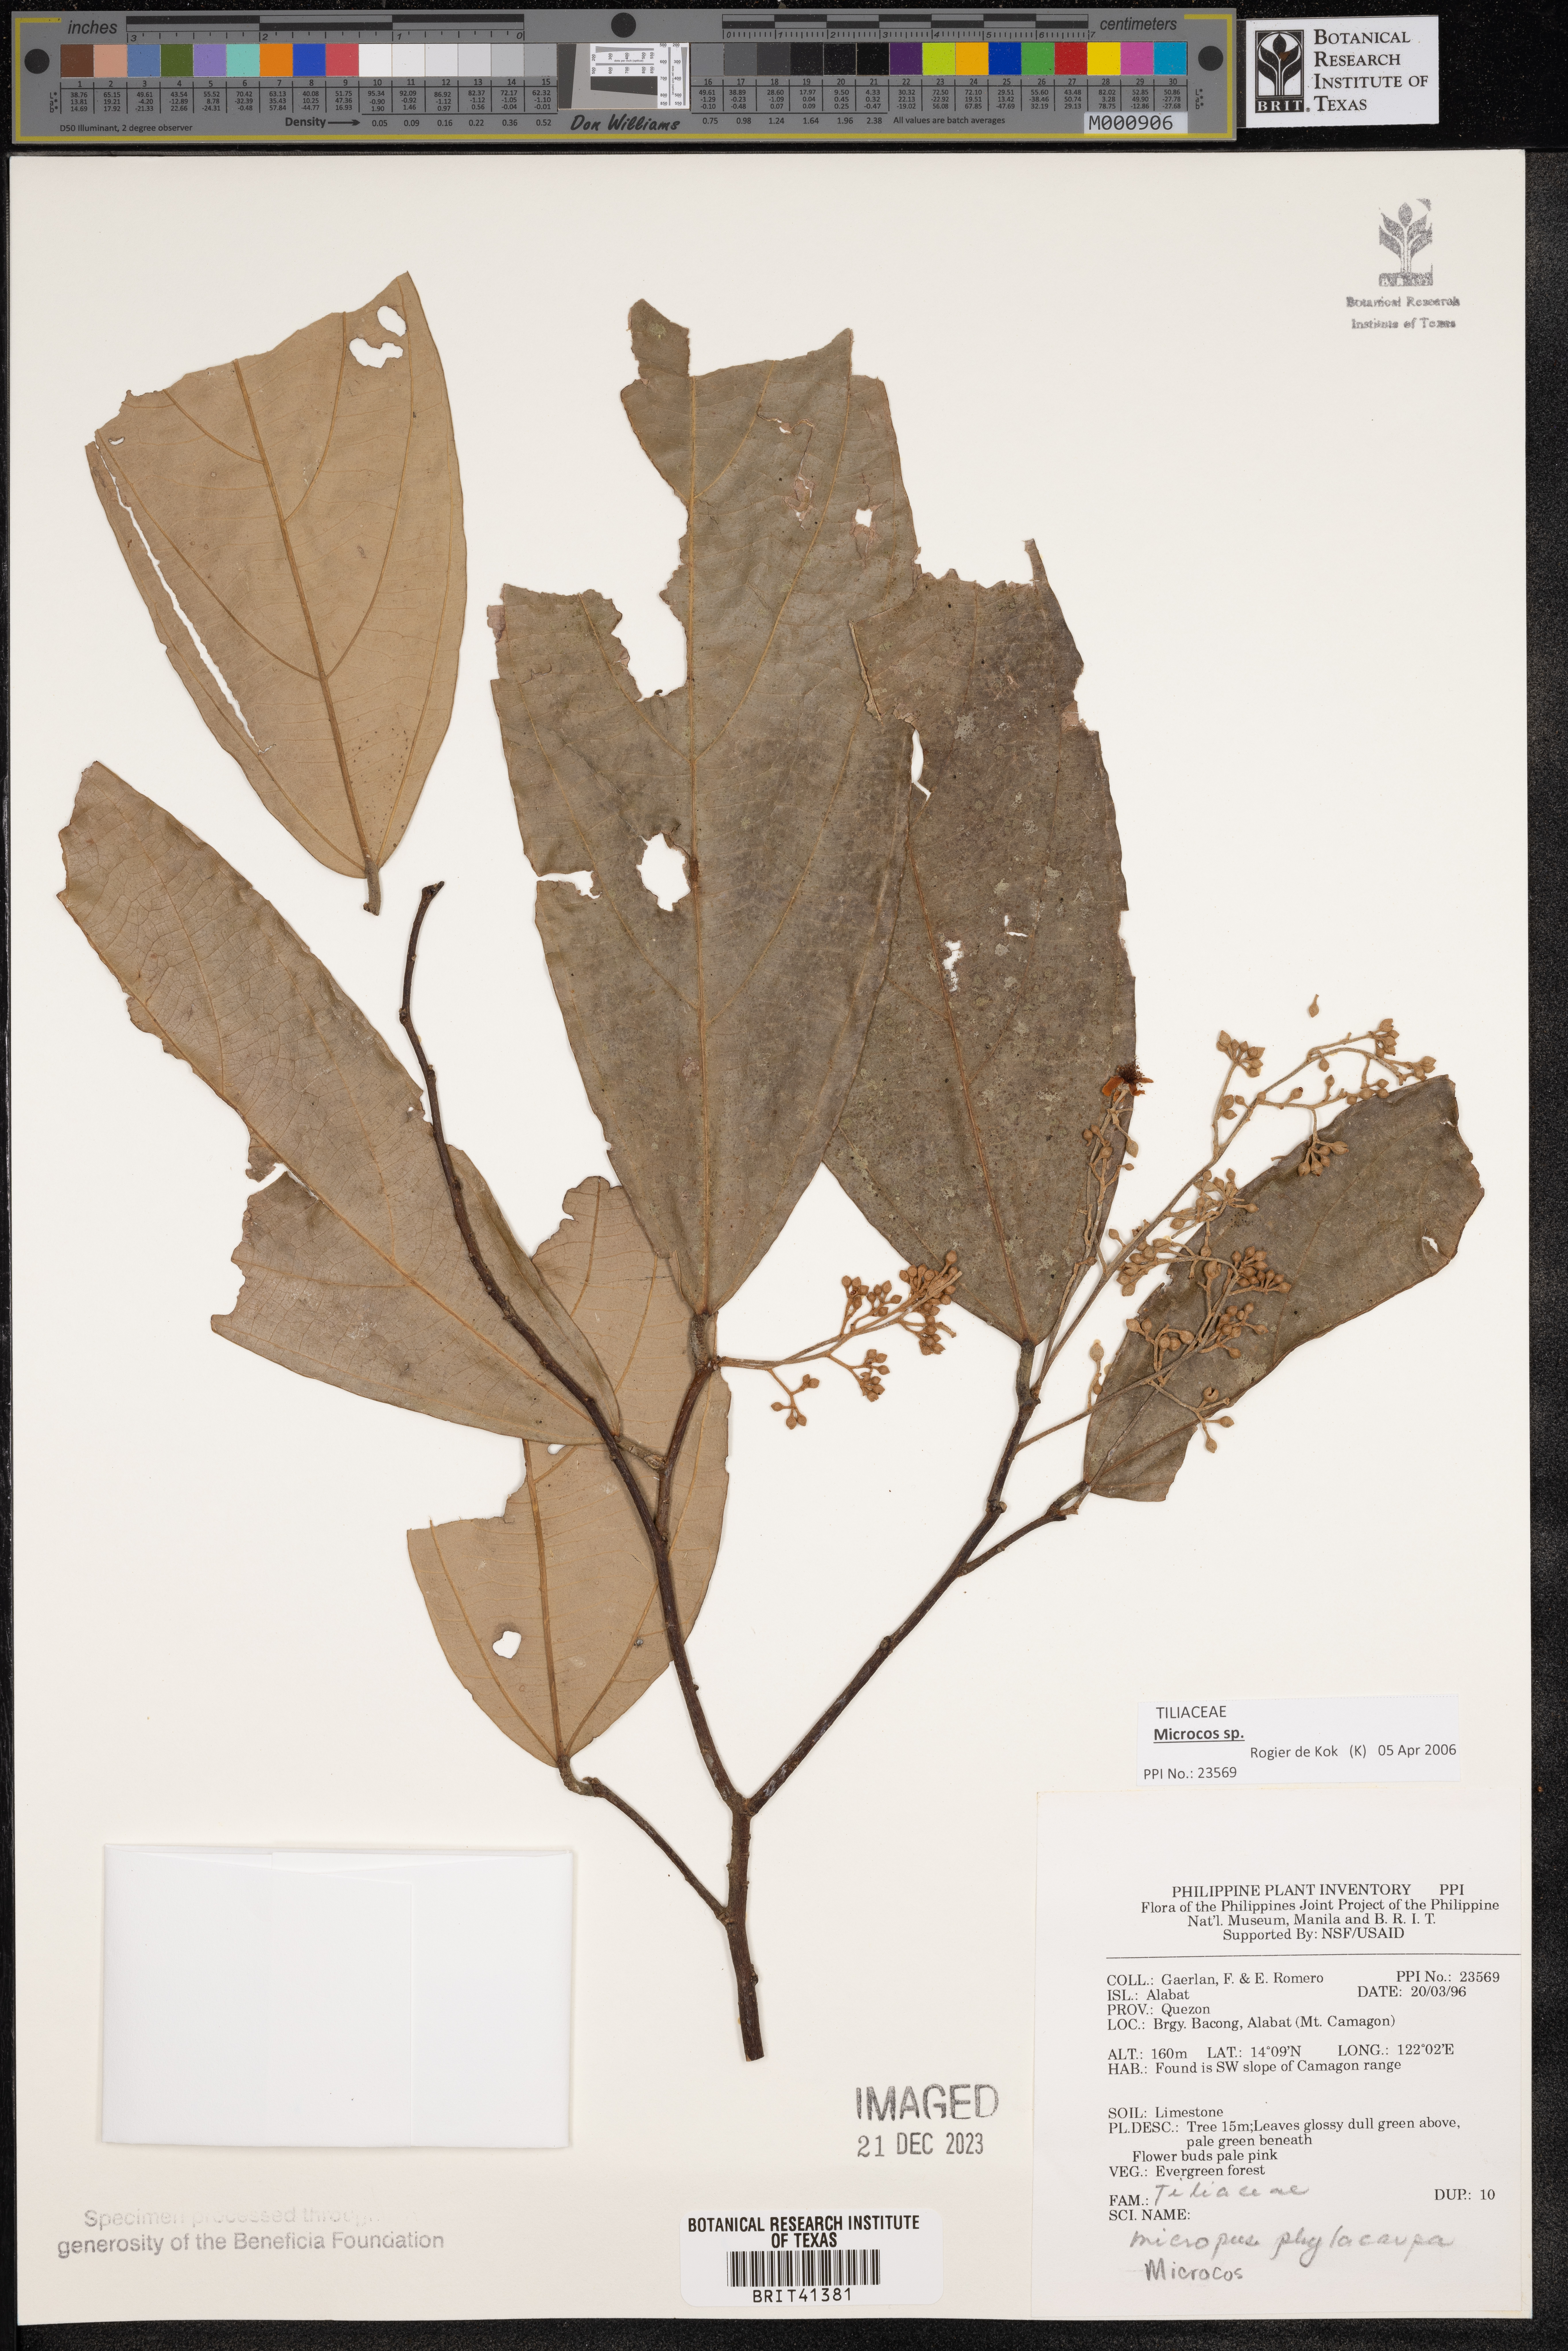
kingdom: Plantae
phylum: Tracheophyta
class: Magnoliopsida
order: Malvales
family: Malvaceae
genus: Microcos
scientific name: Microcos
